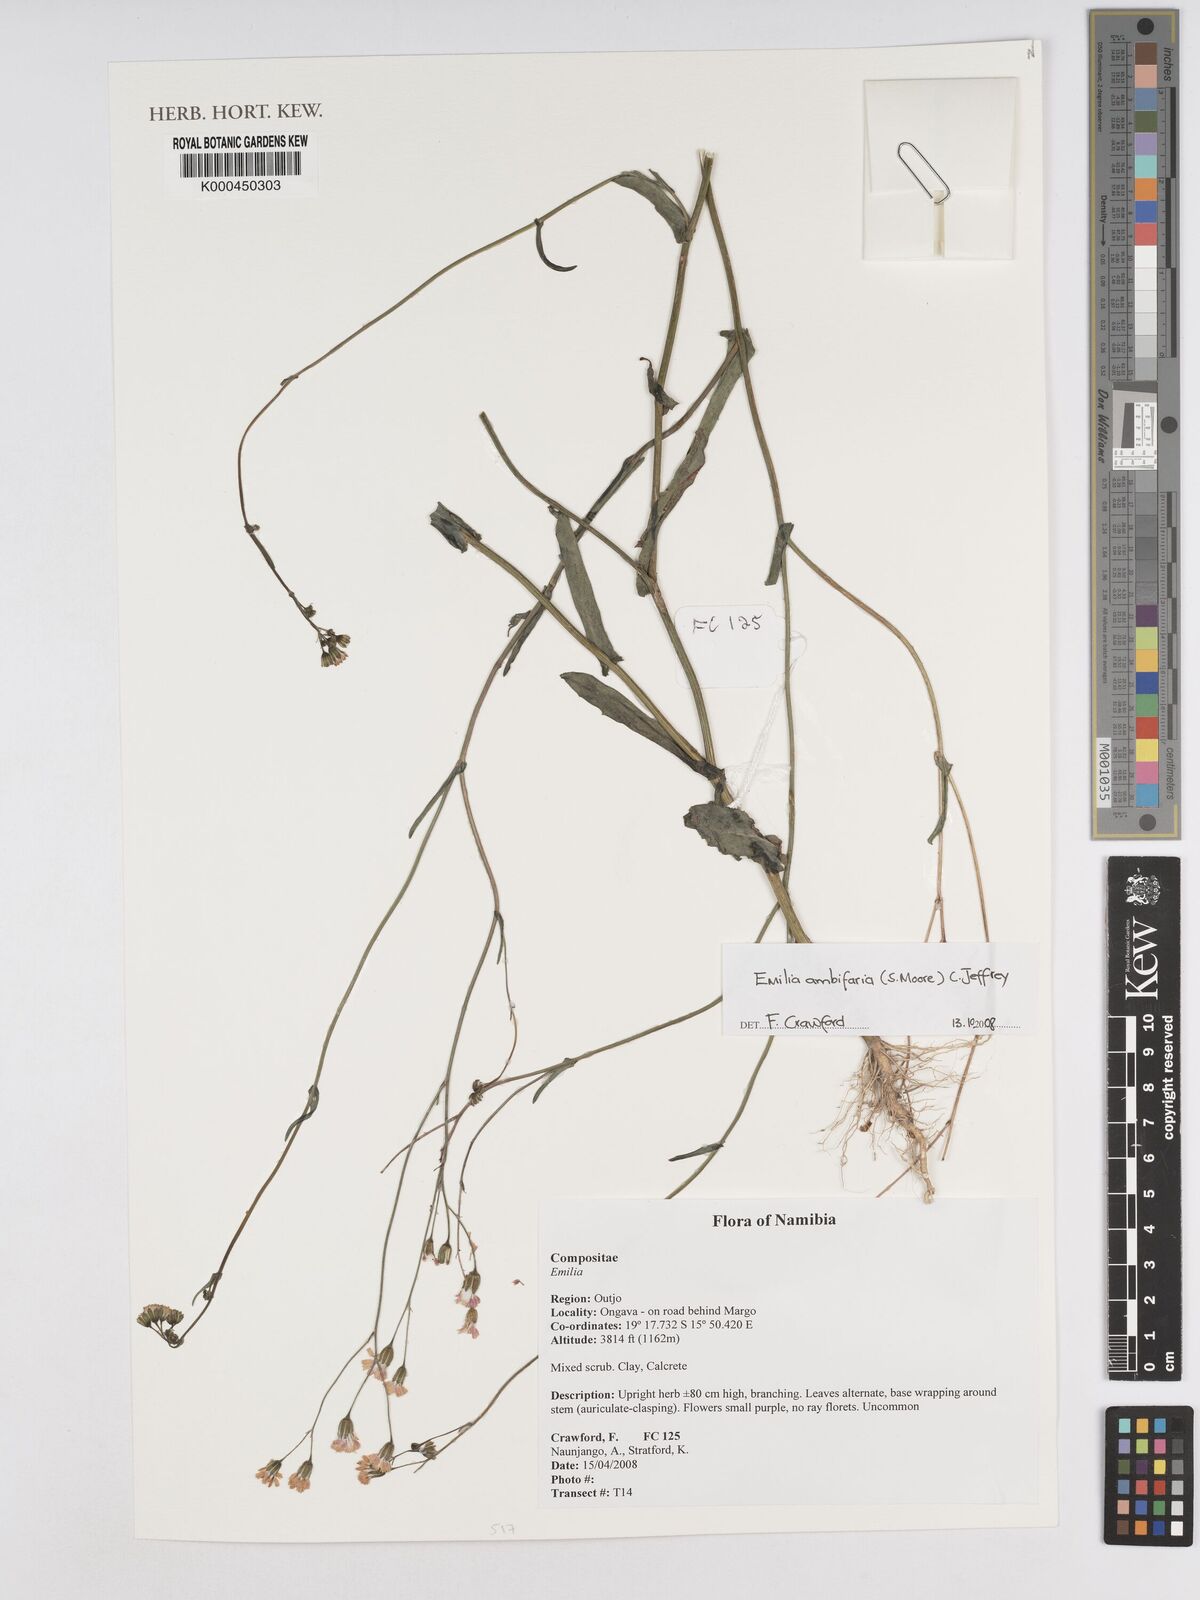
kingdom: Plantae
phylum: Tracheophyta
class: Magnoliopsida
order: Asterales
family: Asteraceae
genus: Emilia
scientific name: Emilia schinzii
